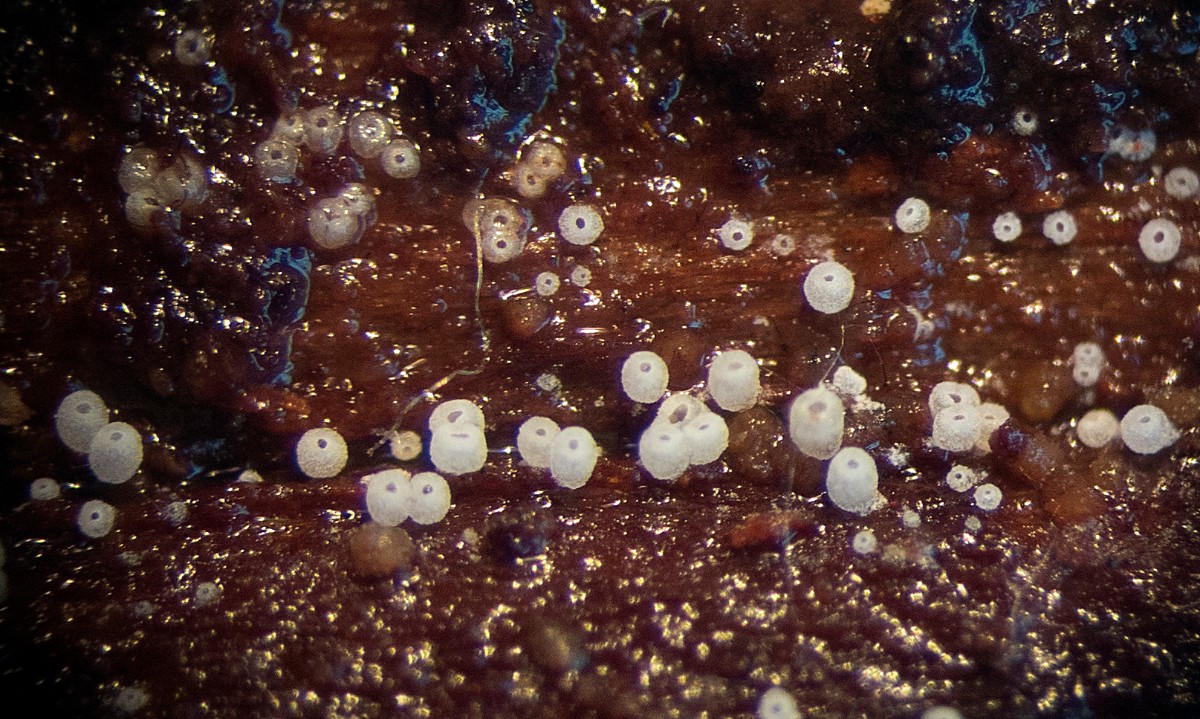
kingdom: Fungi
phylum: Basidiomycota
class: Agaricomycetes
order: Agaricales
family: Marasmiaceae
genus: Henningsomyces
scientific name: Henningsomyces puber
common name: dunet hængerør
